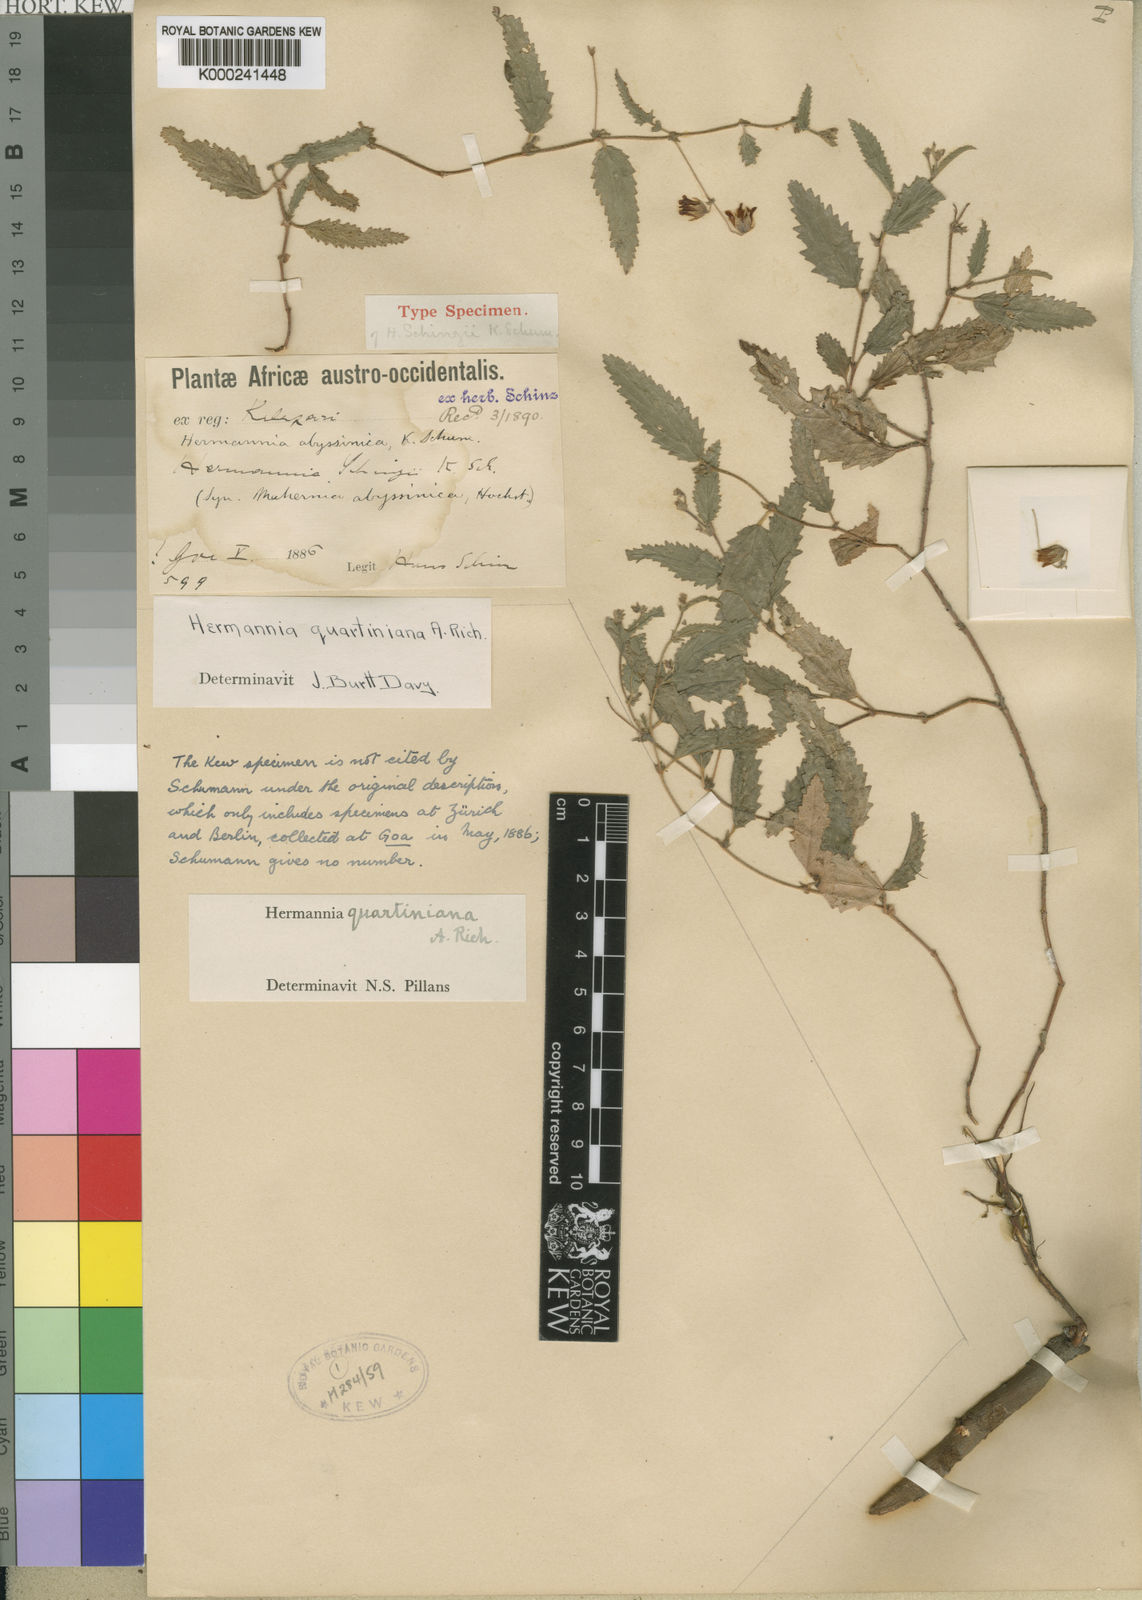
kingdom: Plantae
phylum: Tracheophyta
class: Magnoliopsida
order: Malvales
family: Malvaceae
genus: Hermannia
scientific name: Hermannia quartiniana
